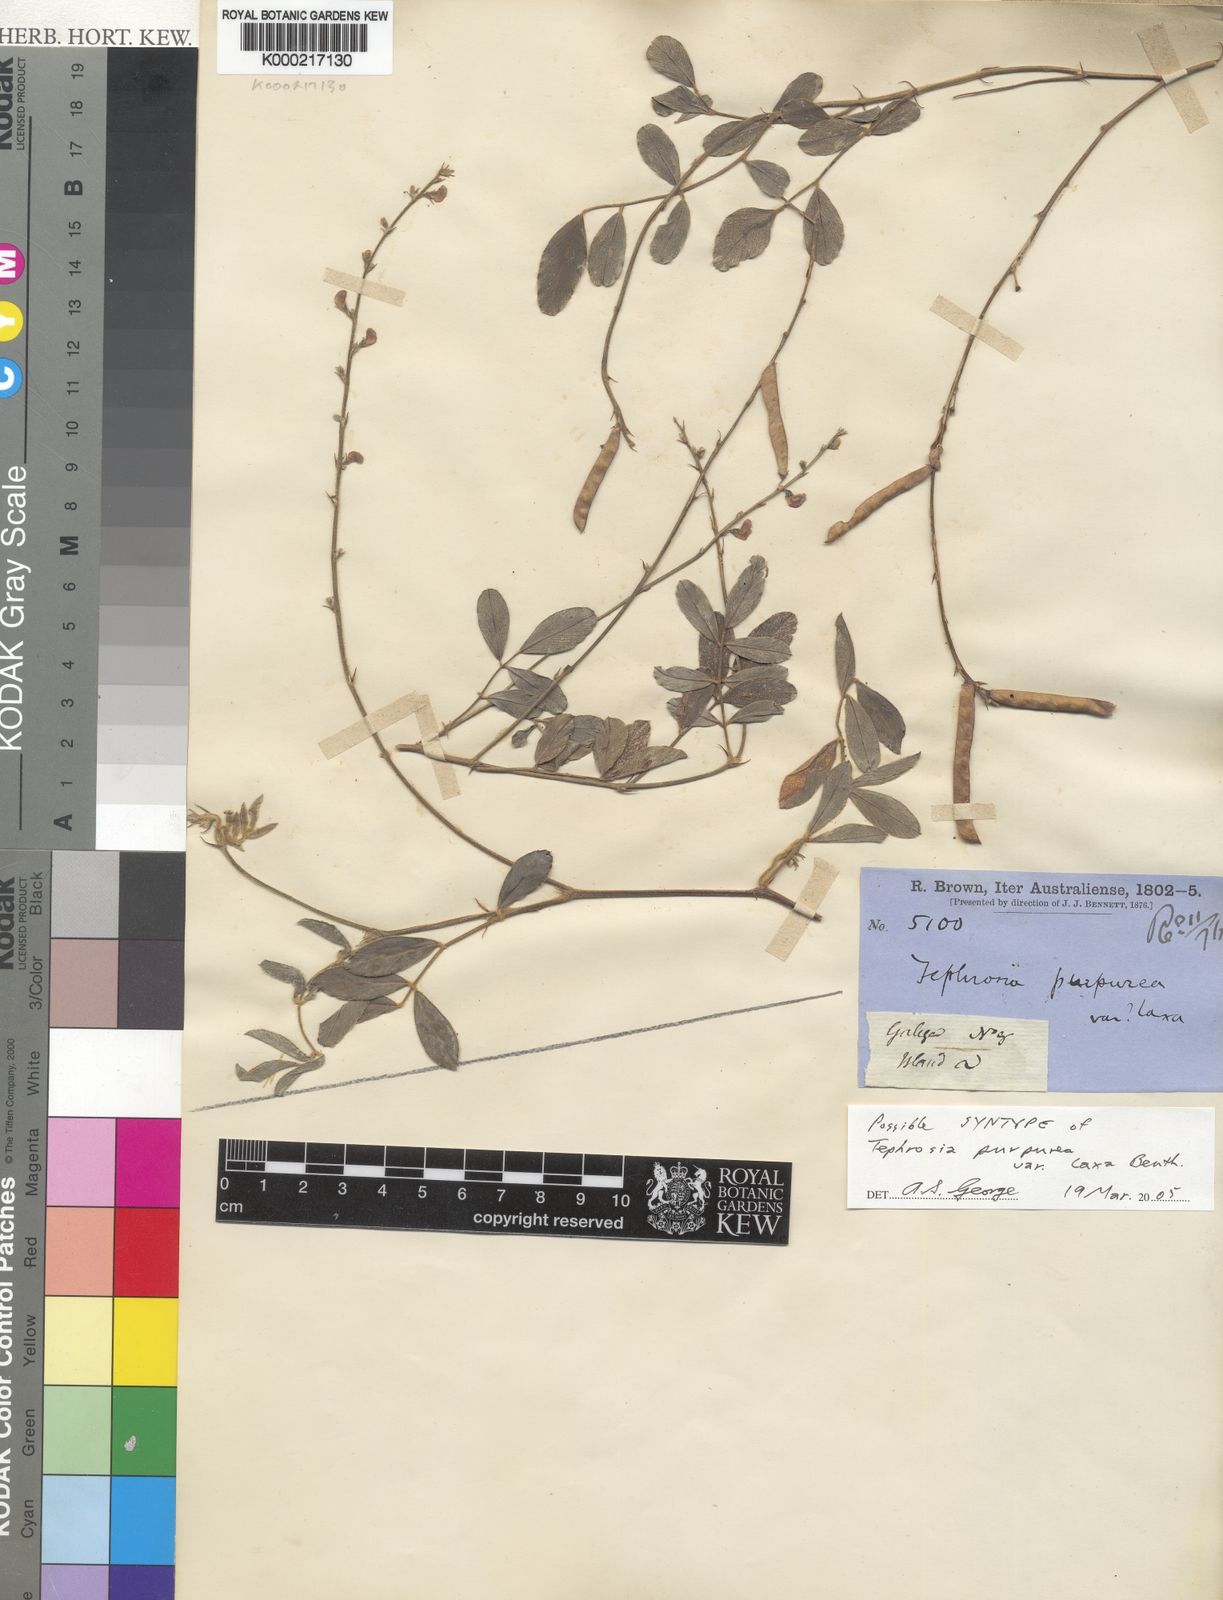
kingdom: Plantae
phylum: Tracheophyta
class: Magnoliopsida
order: Fabales
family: Fabaceae
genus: Tephrosia
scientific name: Tephrosia purpurea
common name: Fishpoison
